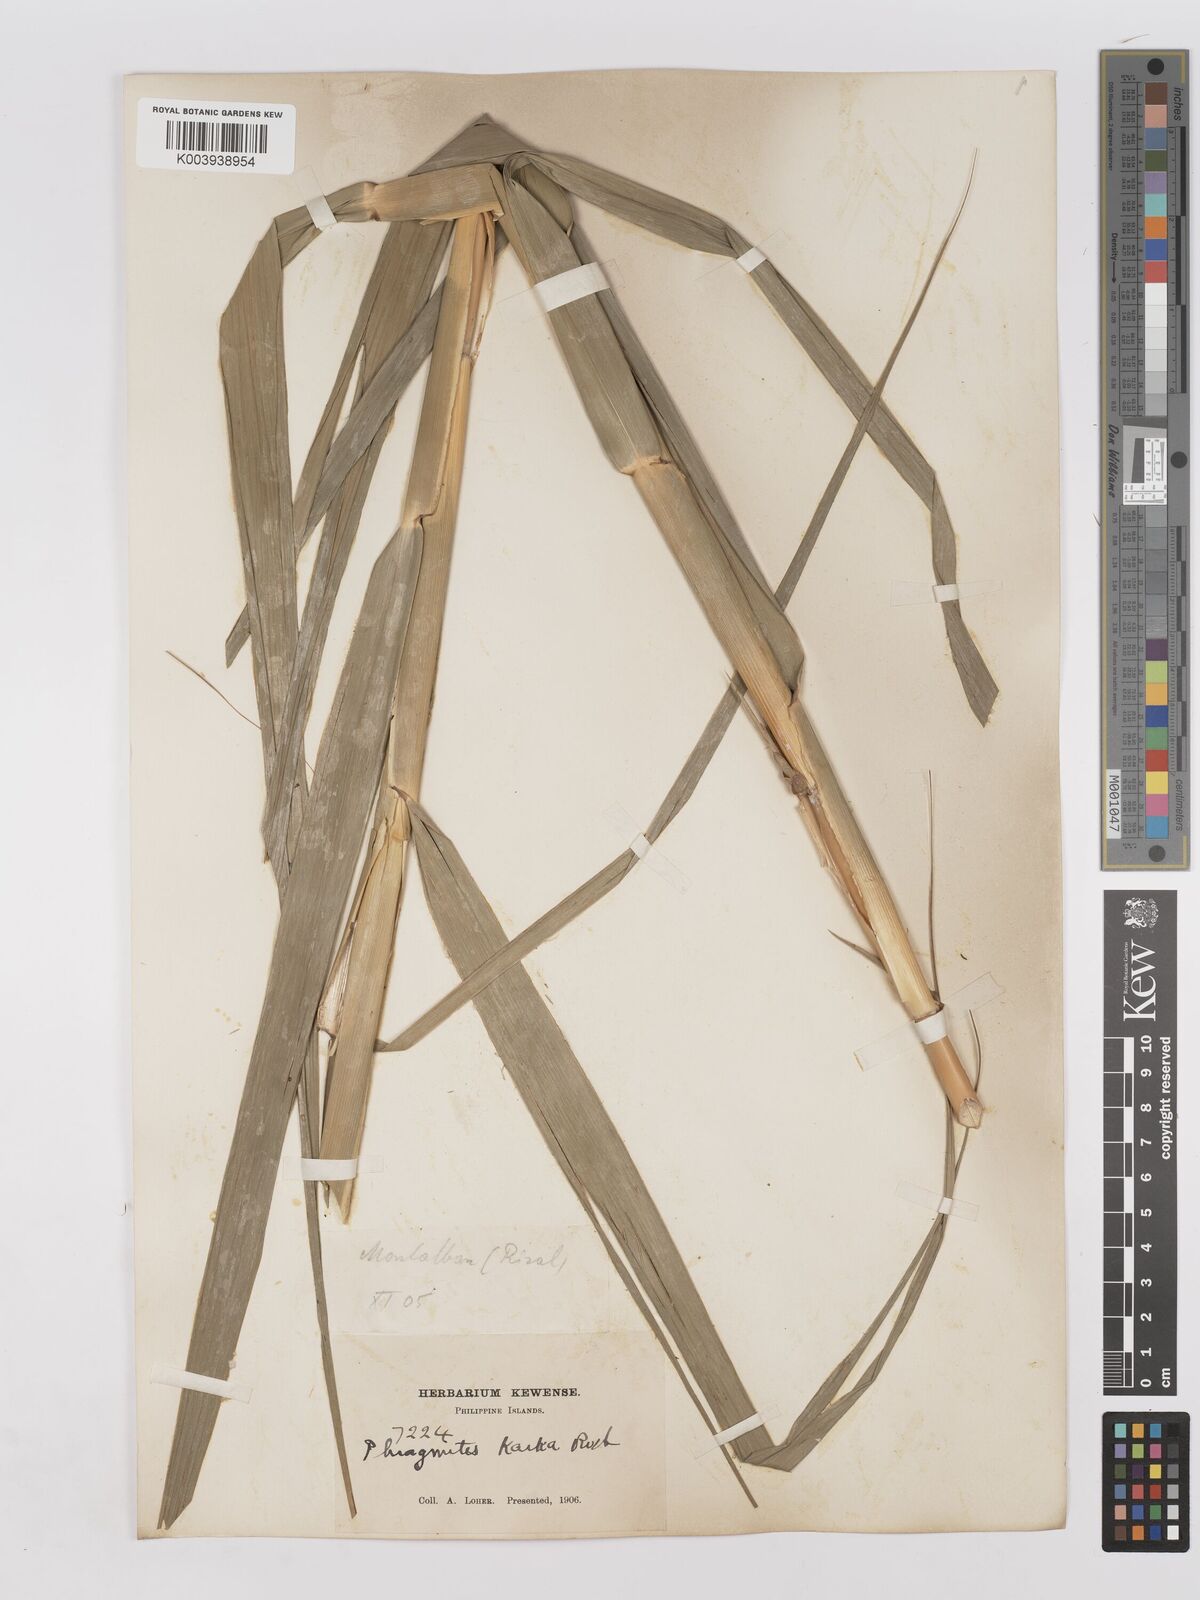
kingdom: Plantae
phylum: Tracheophyta
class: Liliopsida
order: Poales
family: Poaceae
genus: Phragmites
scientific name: Phragmites karka
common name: Tropical reed
